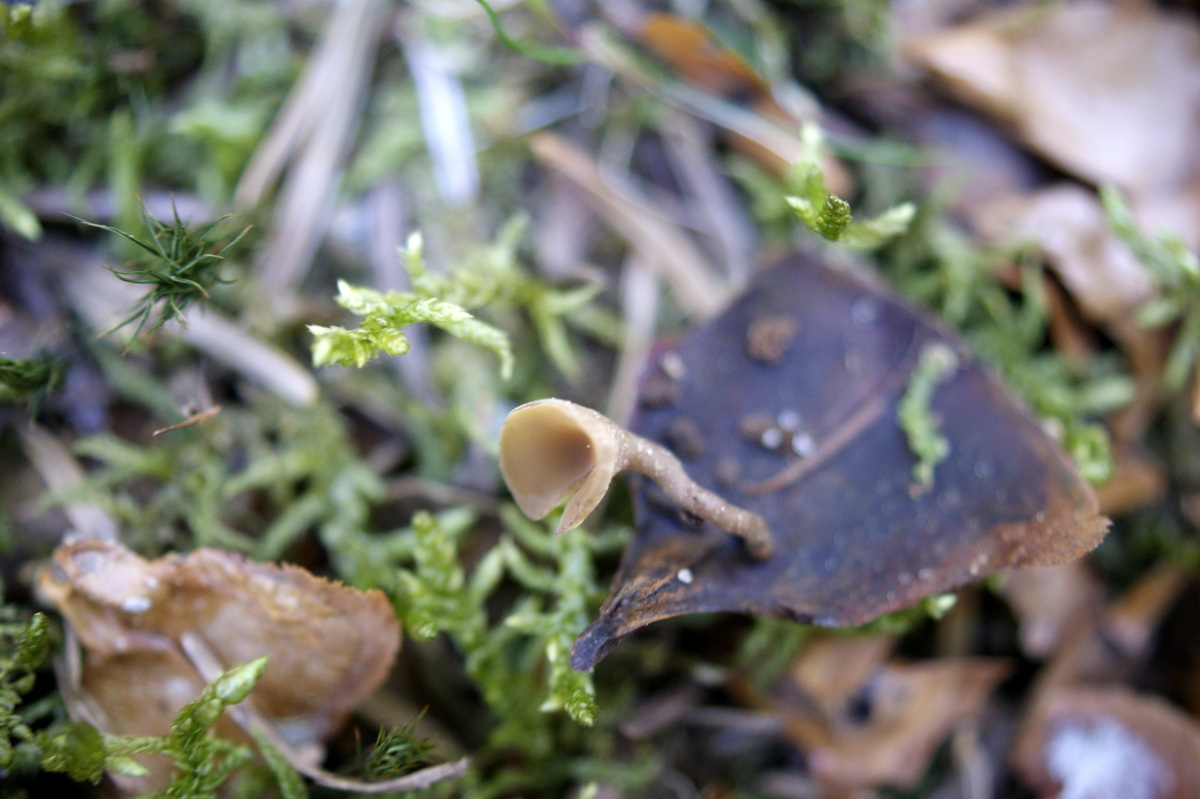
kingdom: Fungi
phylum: Ascomycota
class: Leotiomycetes
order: Helotiales
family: Sclerotiniaceae
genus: Ciboria
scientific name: Ciboria rufofusca
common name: kogleskæl-knoldskive
